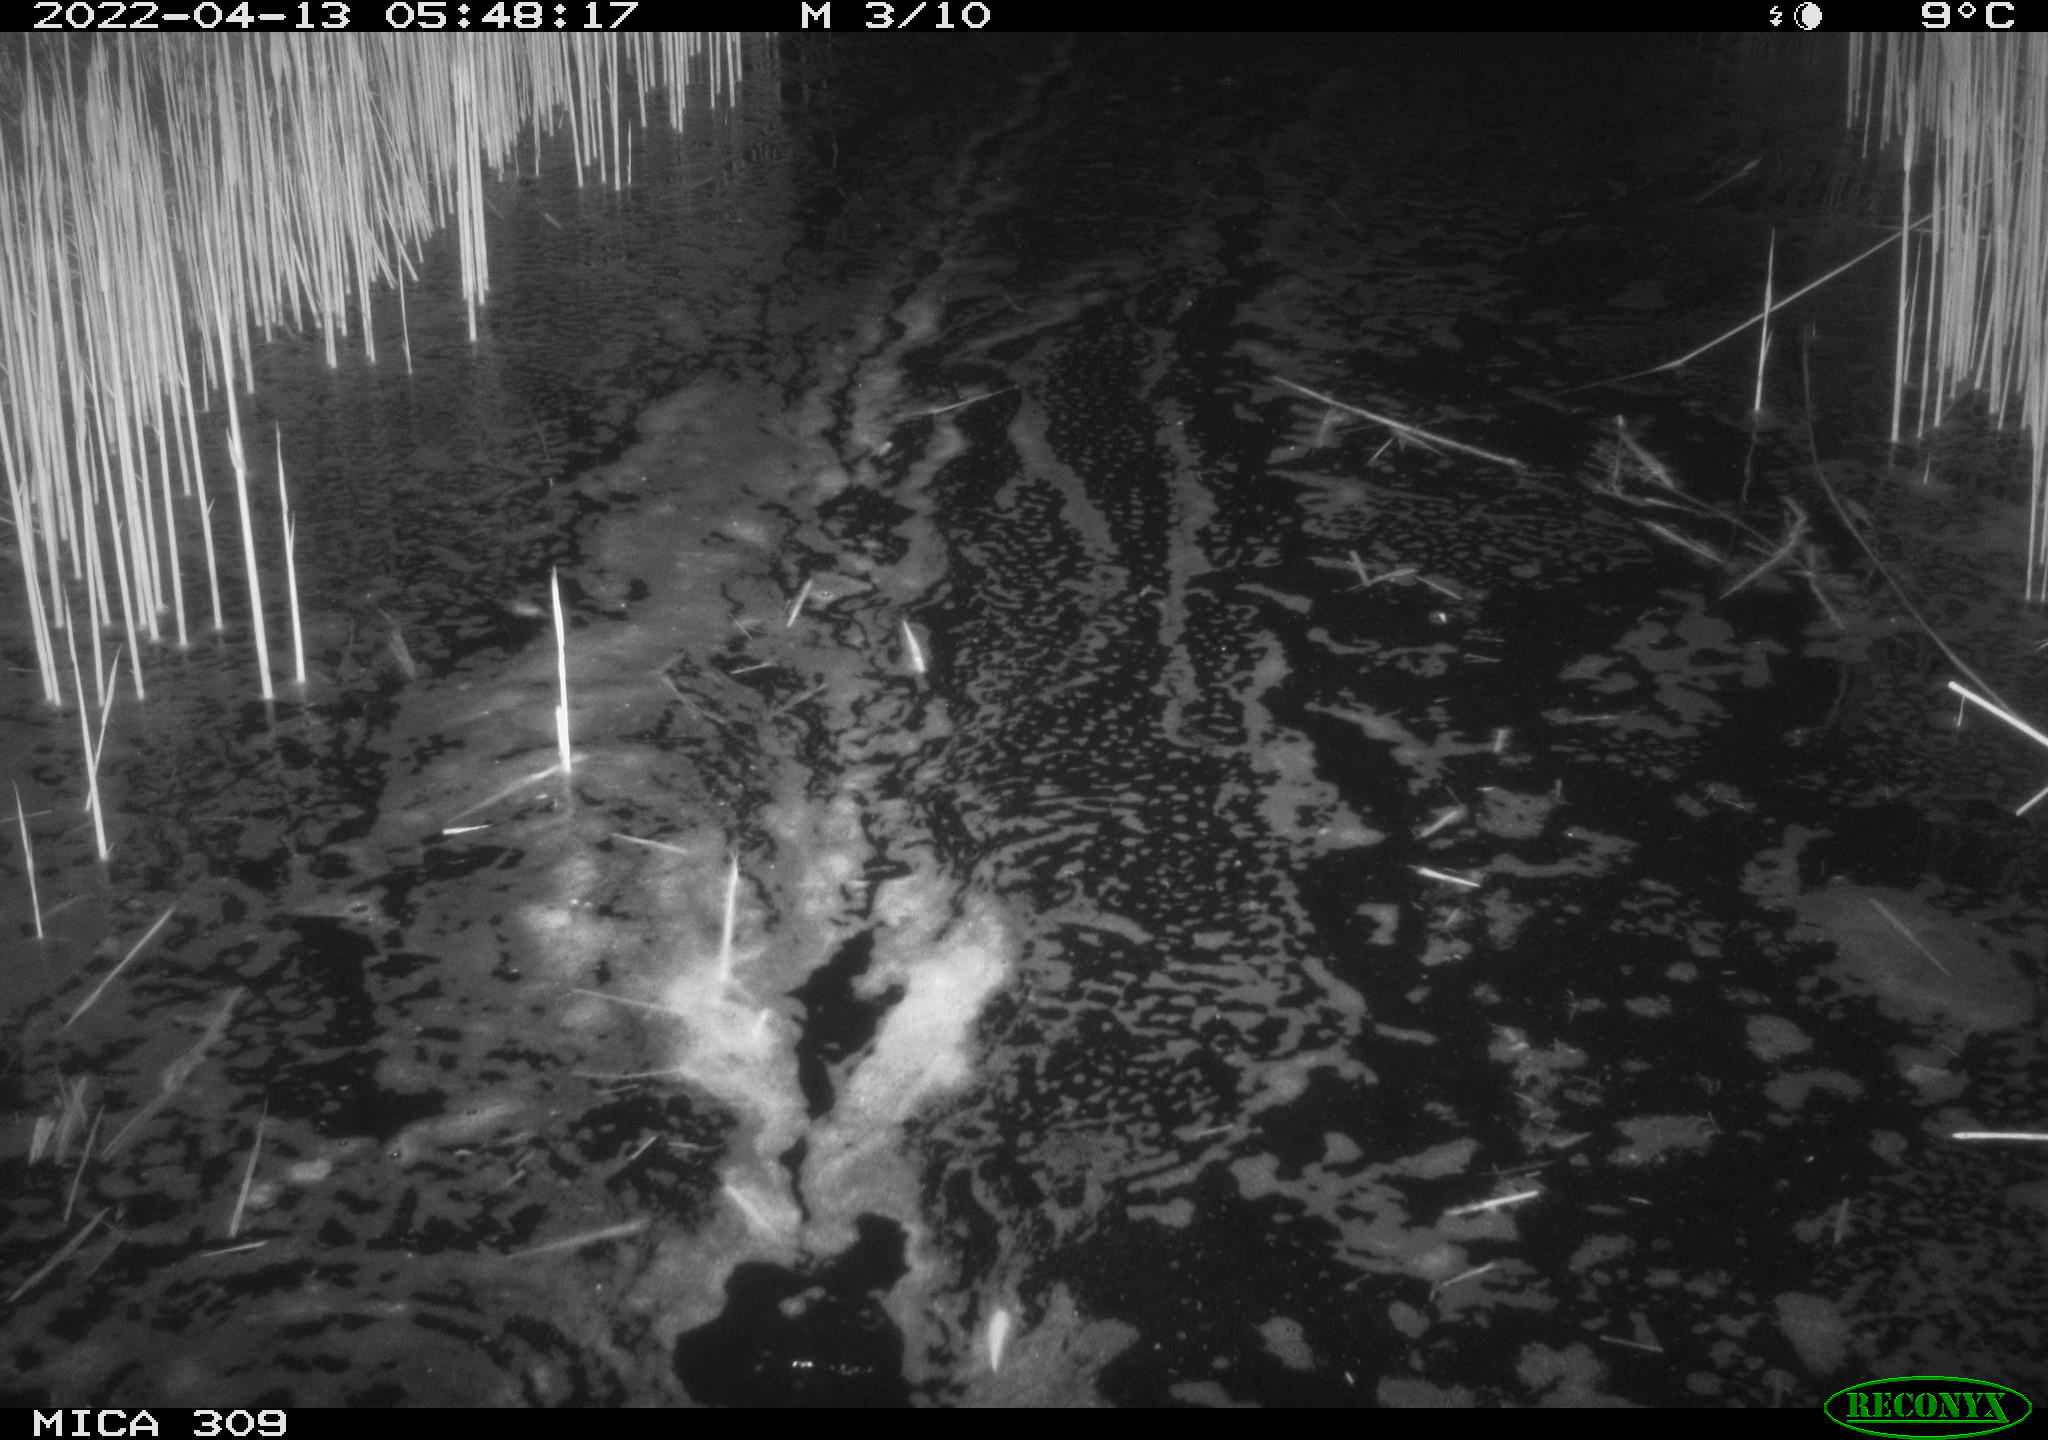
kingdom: Animalia
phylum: Chordata
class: Aves
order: Anseriformes
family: Anatidae
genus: Anas
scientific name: Anas platyrhynchos
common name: Mallard
